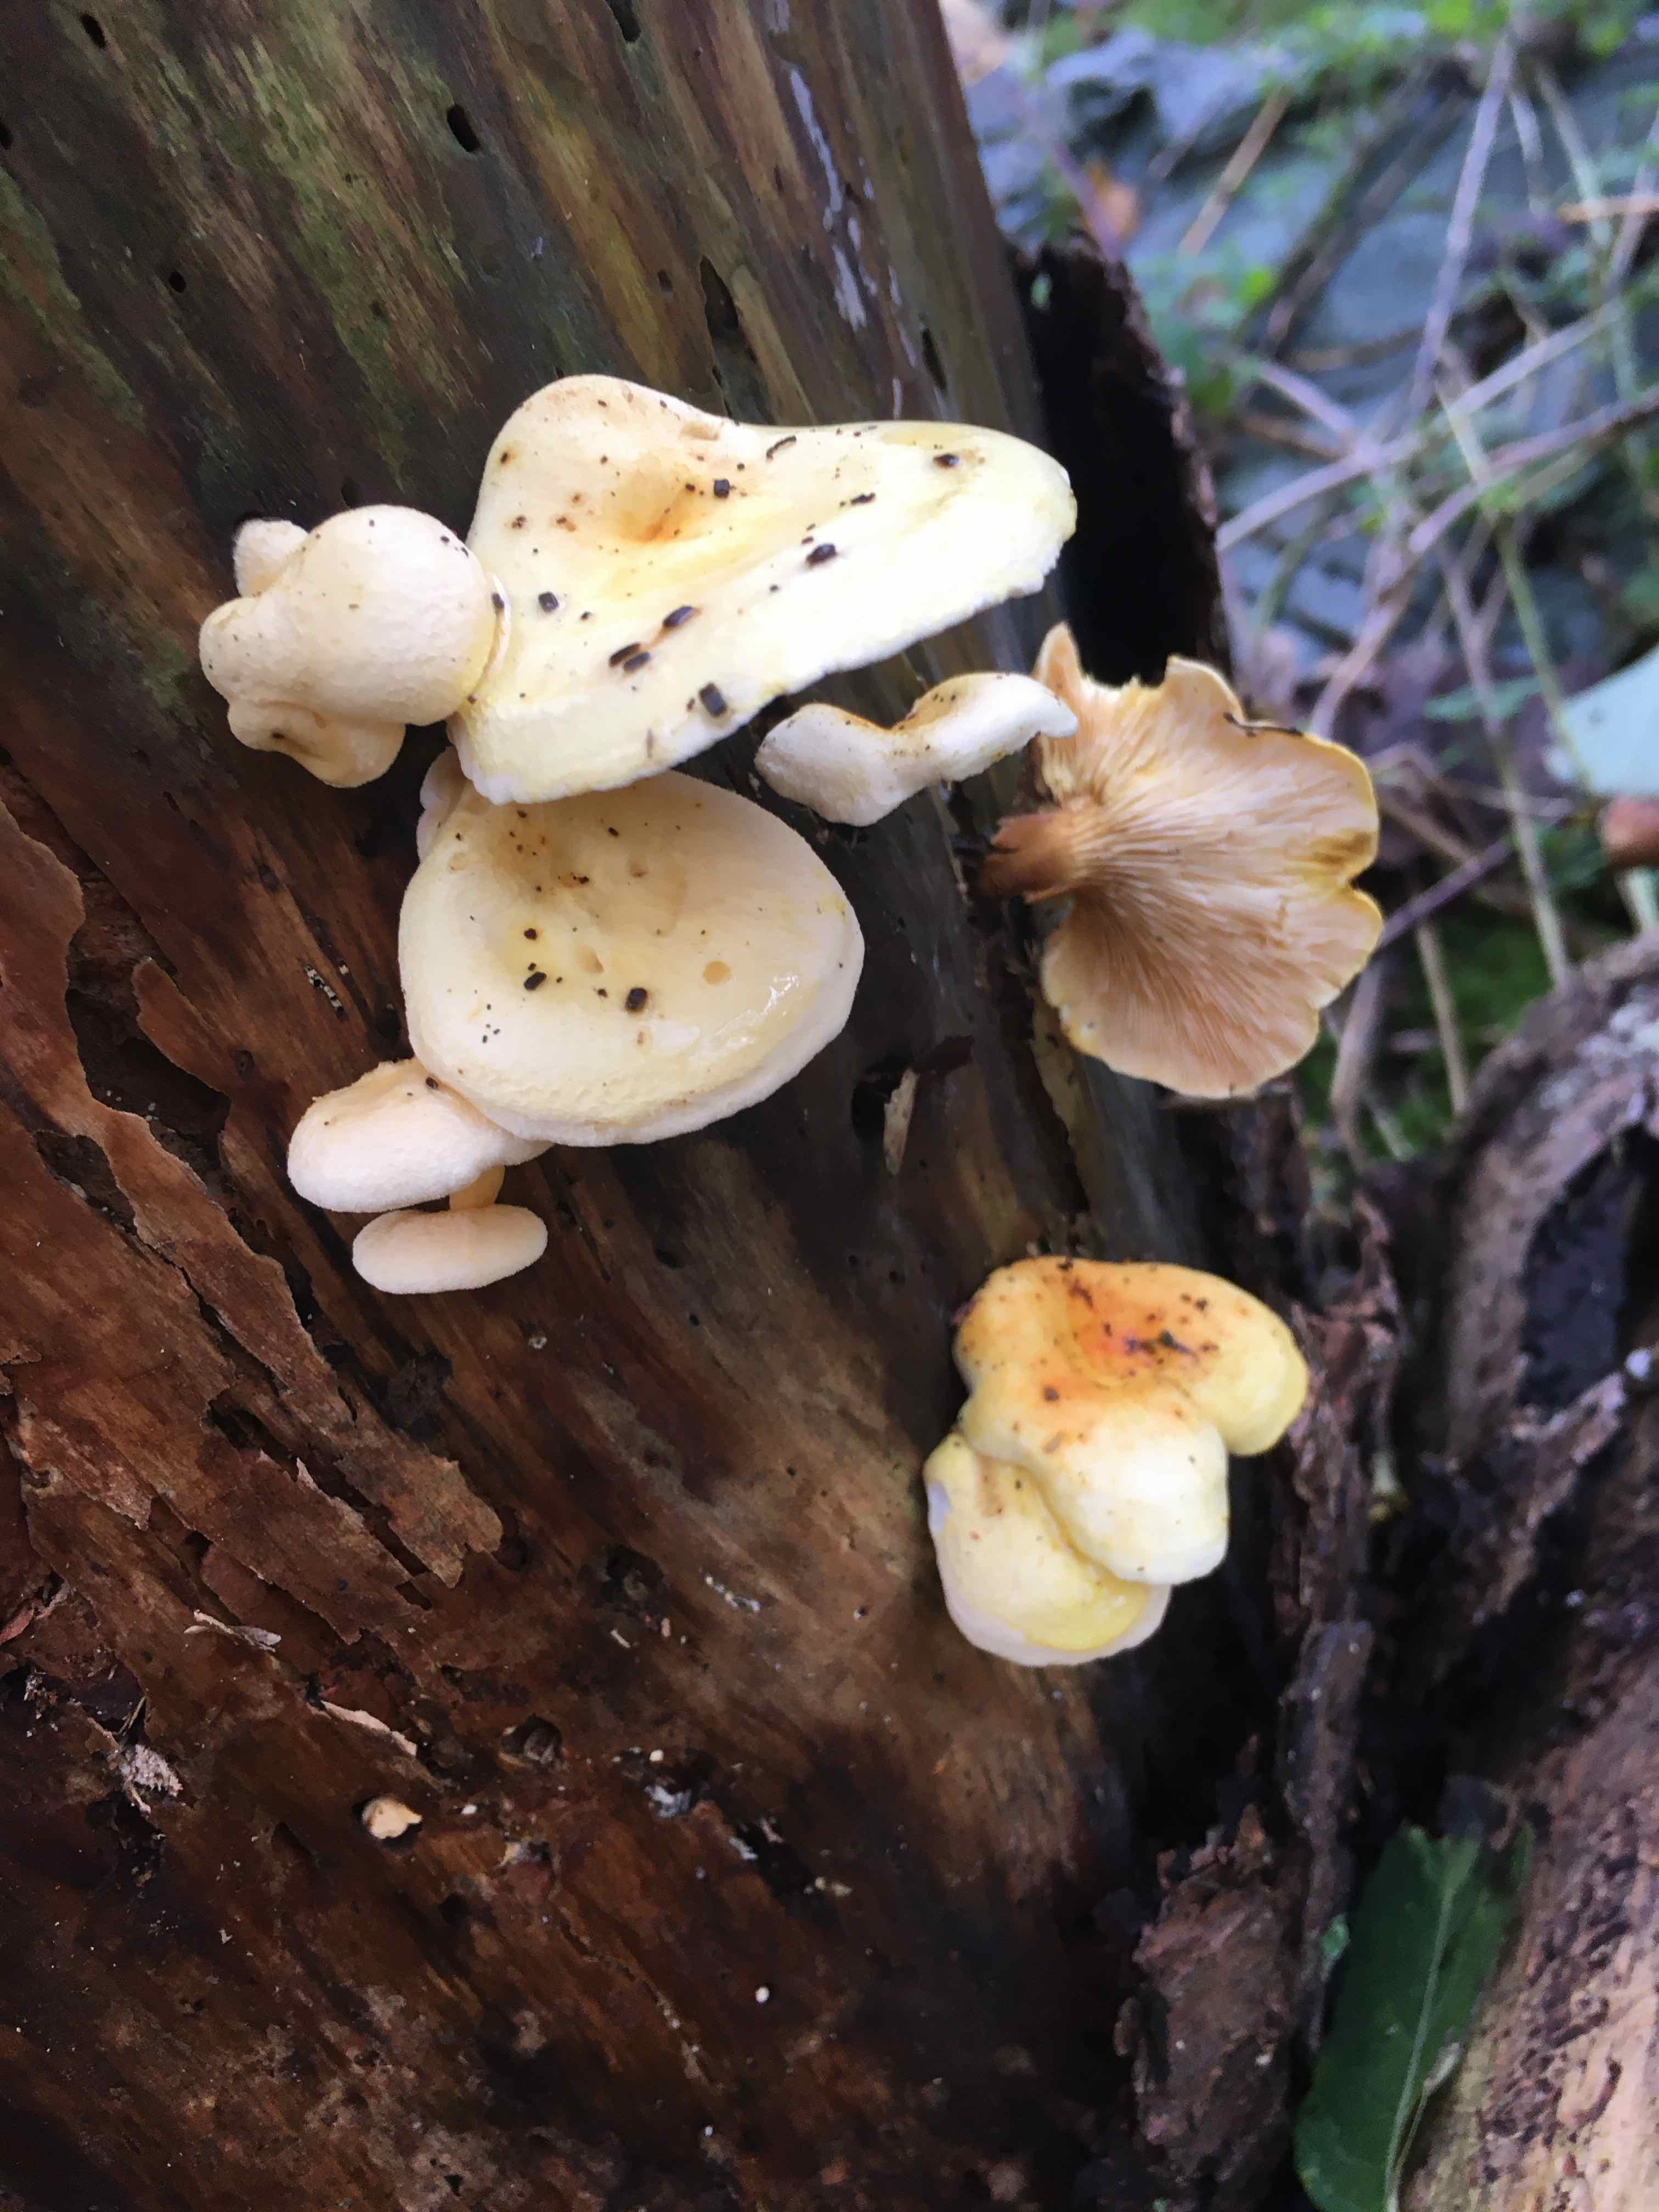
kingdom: Fungi
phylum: Basidiomycota
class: Agaricomycetes
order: Boletales
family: Hygrophoropsidaceae
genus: Hygrophoropsis
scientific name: Hygrophoropsis
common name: orangekantarel
